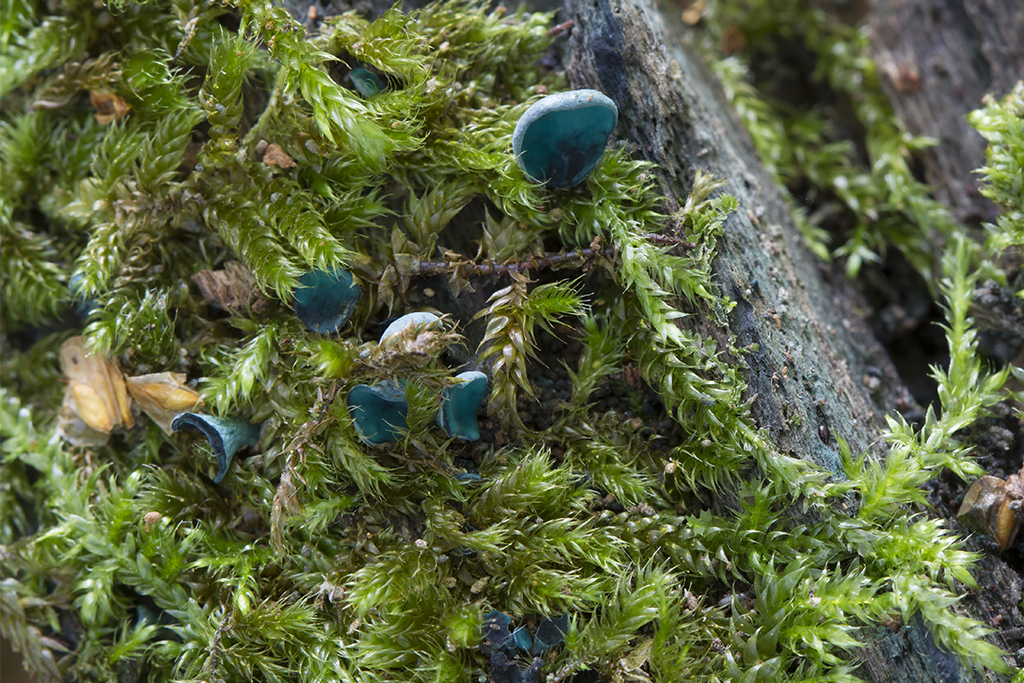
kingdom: Fungi
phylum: Ascomycota
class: Leotiomycetes
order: Helotiales
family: Chlorociboriaceae
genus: Chlorociboria
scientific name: Chlorociboria aeruginascens
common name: almindelig grønskive
